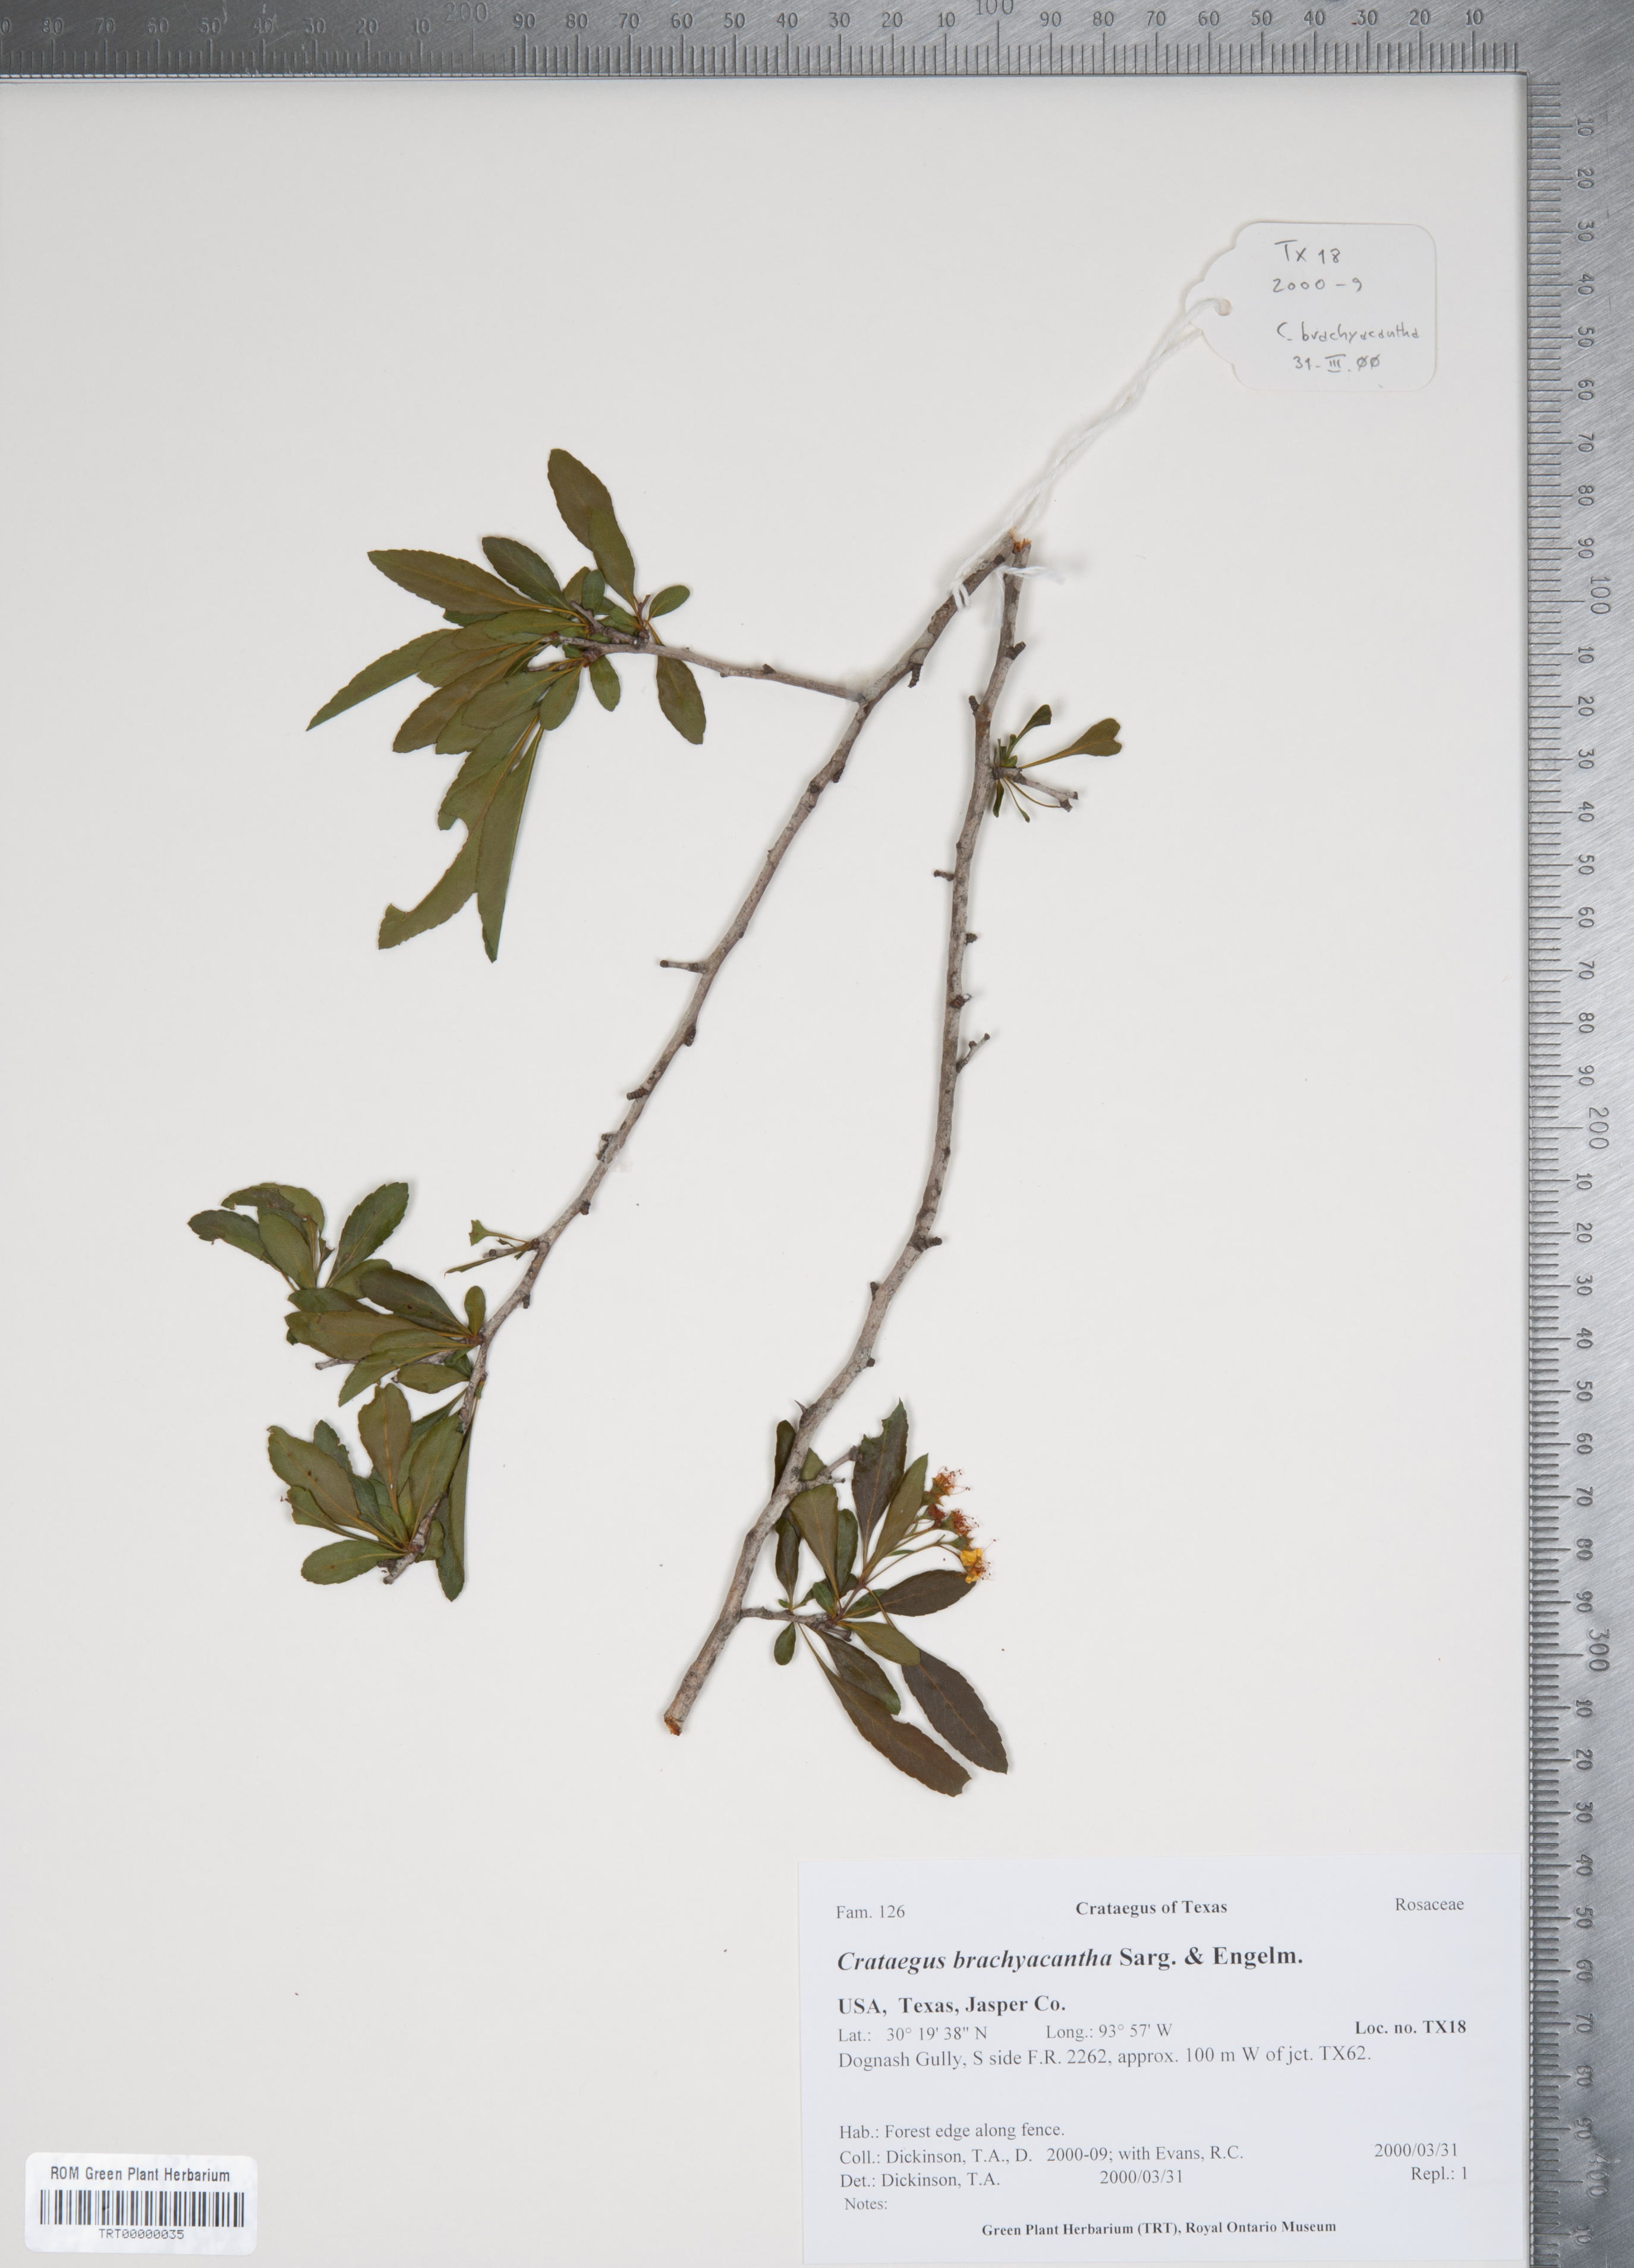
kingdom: Plantae
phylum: Tracheophyta
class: Magnoliopsida
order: Rosales
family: Rosaceae
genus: Crataegus
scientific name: Crataegus brachyacantha
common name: Blueberry-hawthorn
